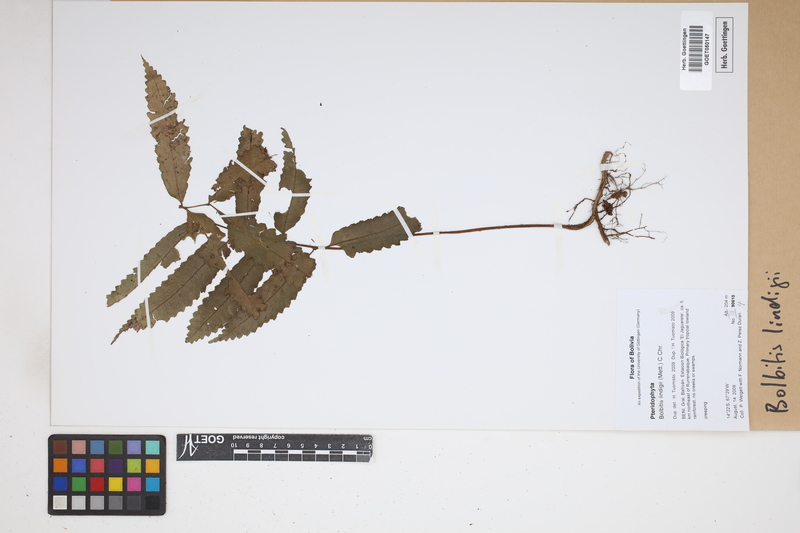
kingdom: Plantae
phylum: Tracheophyta
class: Polypodiopsida
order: Polypodiales
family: Dryopteridaceae
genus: Mickelia
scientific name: Mickelia lindigii
